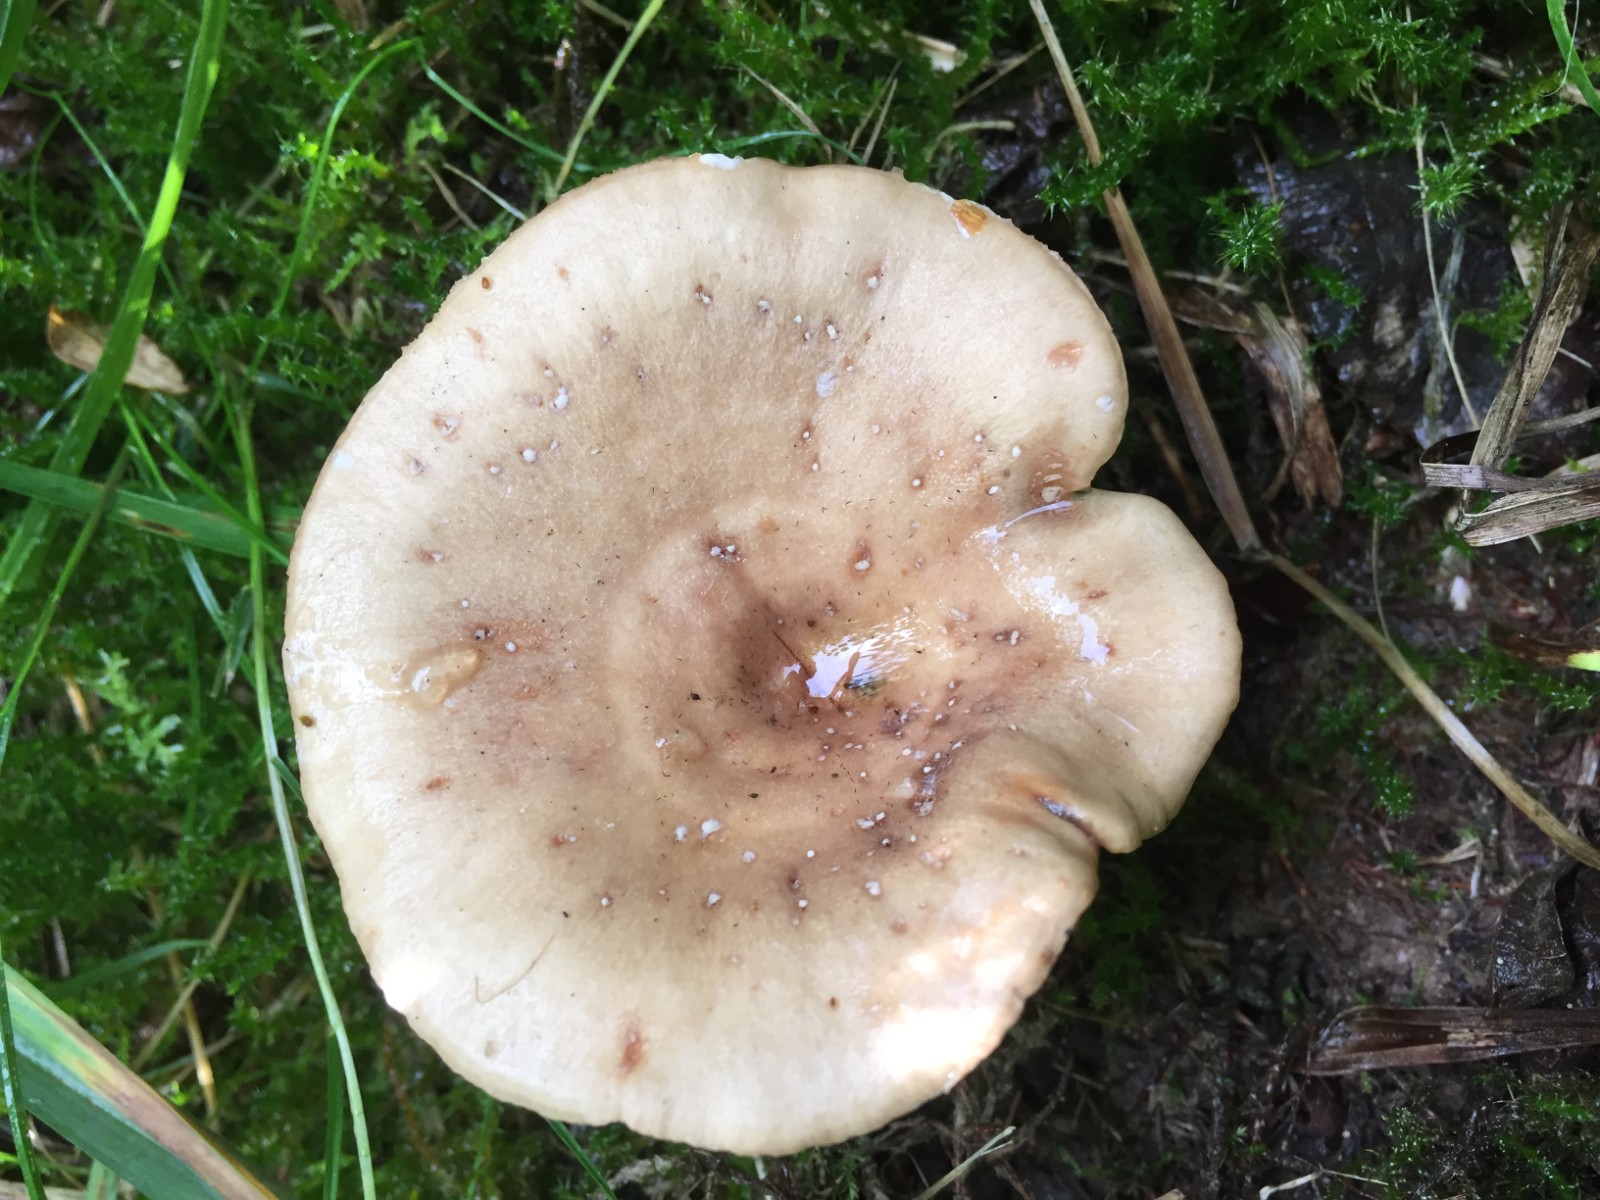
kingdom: Fungi
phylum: Basidiomycota
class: Agaricomycetes
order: Russulales
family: Russulaceae
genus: Lactarius
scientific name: Lactarius pyrogalus
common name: hassel-mælkehat
